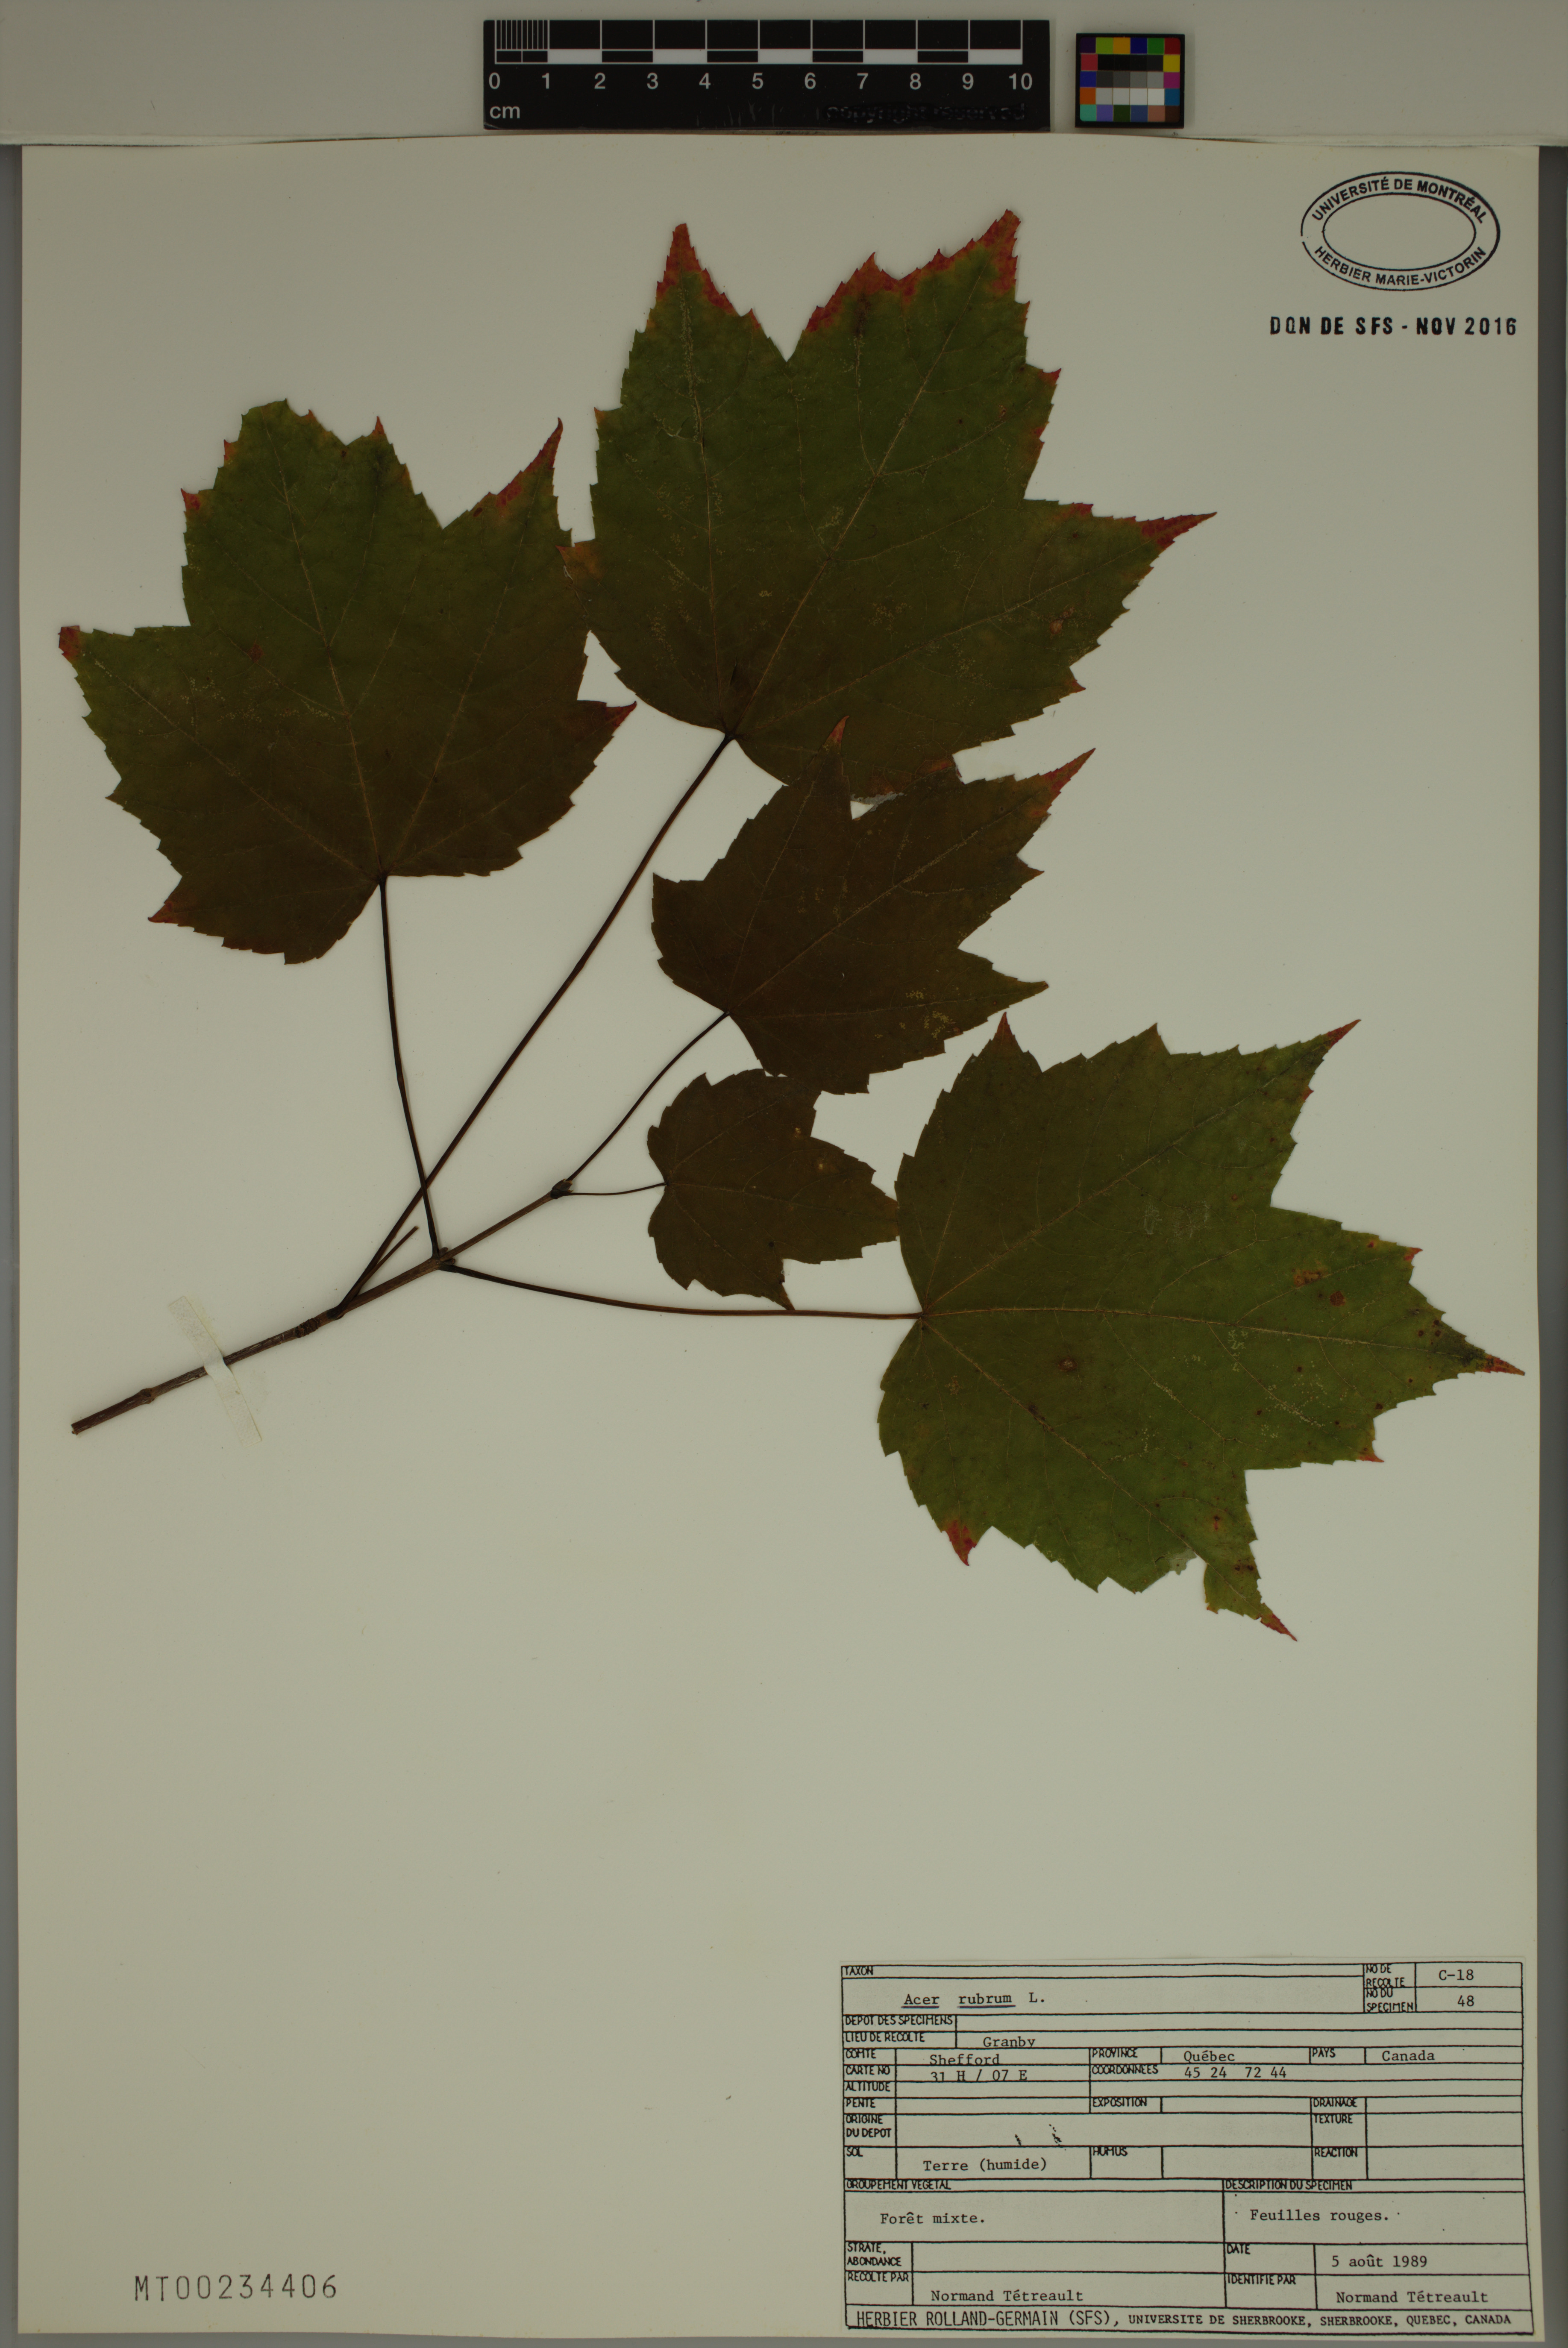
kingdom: Plantae
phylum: Tracheophyta
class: Magnoliopsida
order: Sapindales
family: Sapindaceae
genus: Acer
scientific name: Acer rubrum
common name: Red maple
